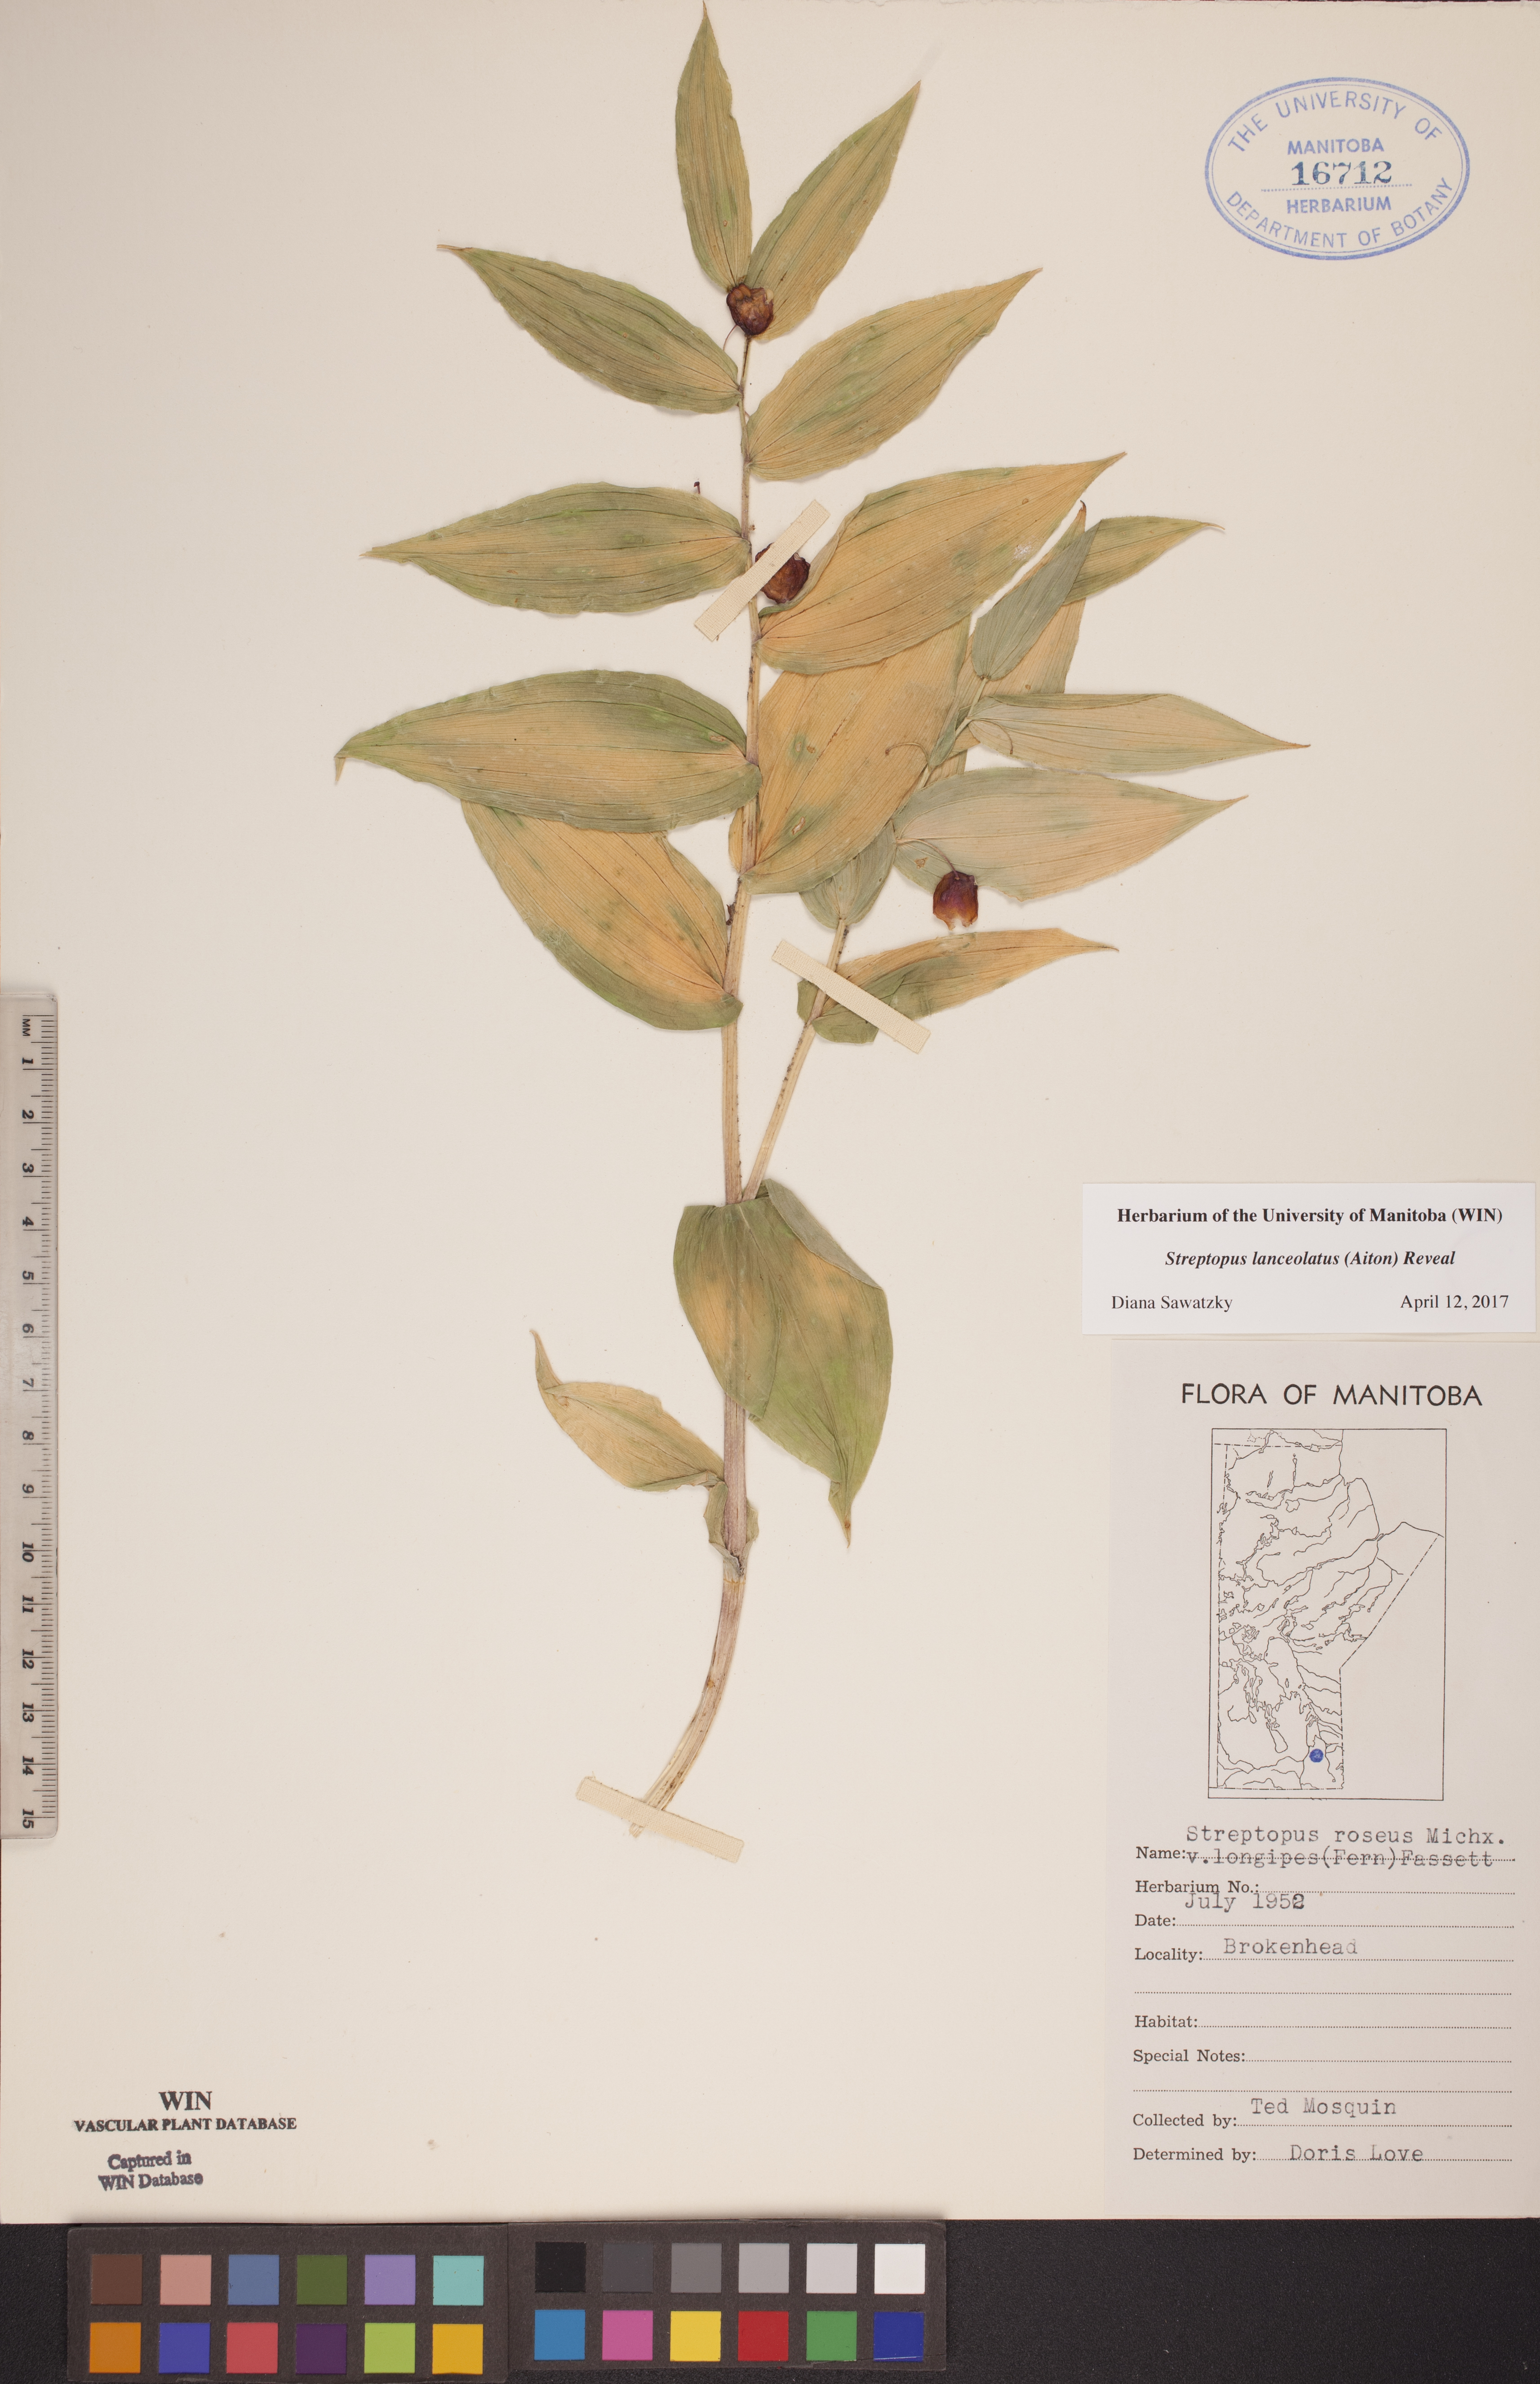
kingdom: Plantae
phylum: Tracheophyta
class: Liliopsida
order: Liliales
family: Liliaceae
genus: Streptopus
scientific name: Streptopus lanceolatus
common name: Rose mandarin
